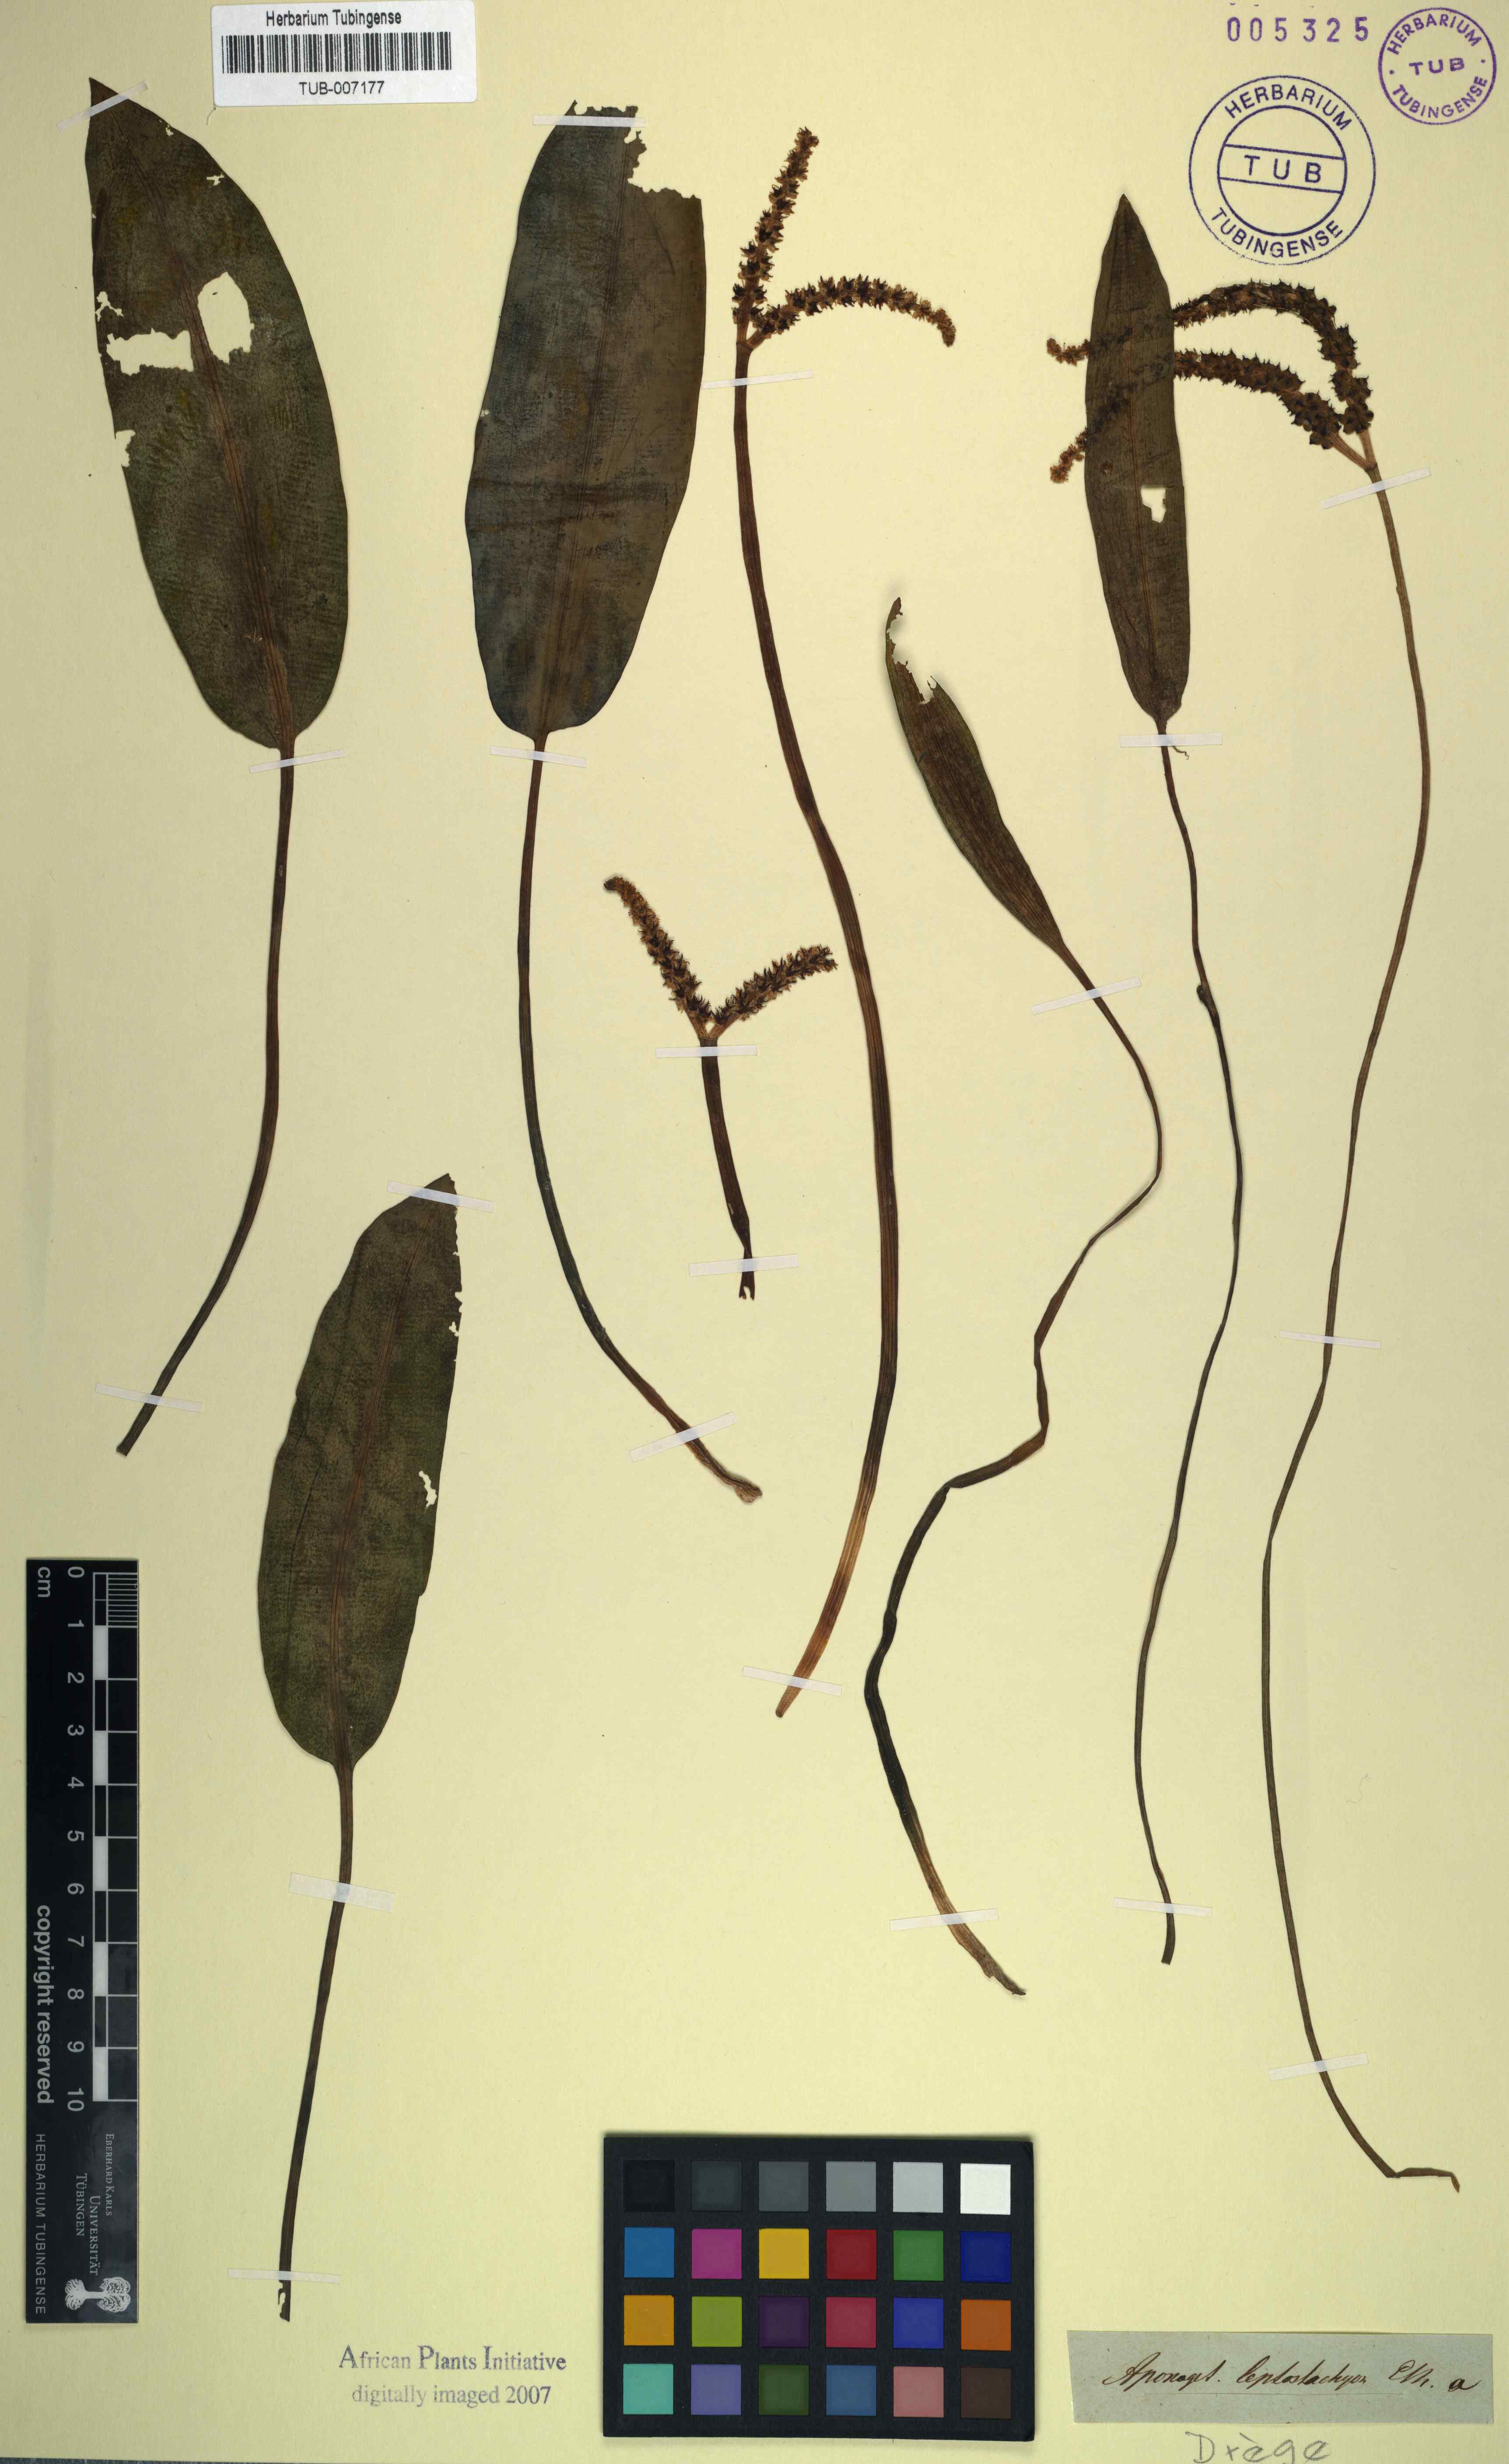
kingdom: Plantae
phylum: Tracheophyta
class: Liliopsida
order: Alismatales
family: Aponogetonaceae
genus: Aponogeton
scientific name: Aponogeton desertorum
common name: Dog-with-two-tails
